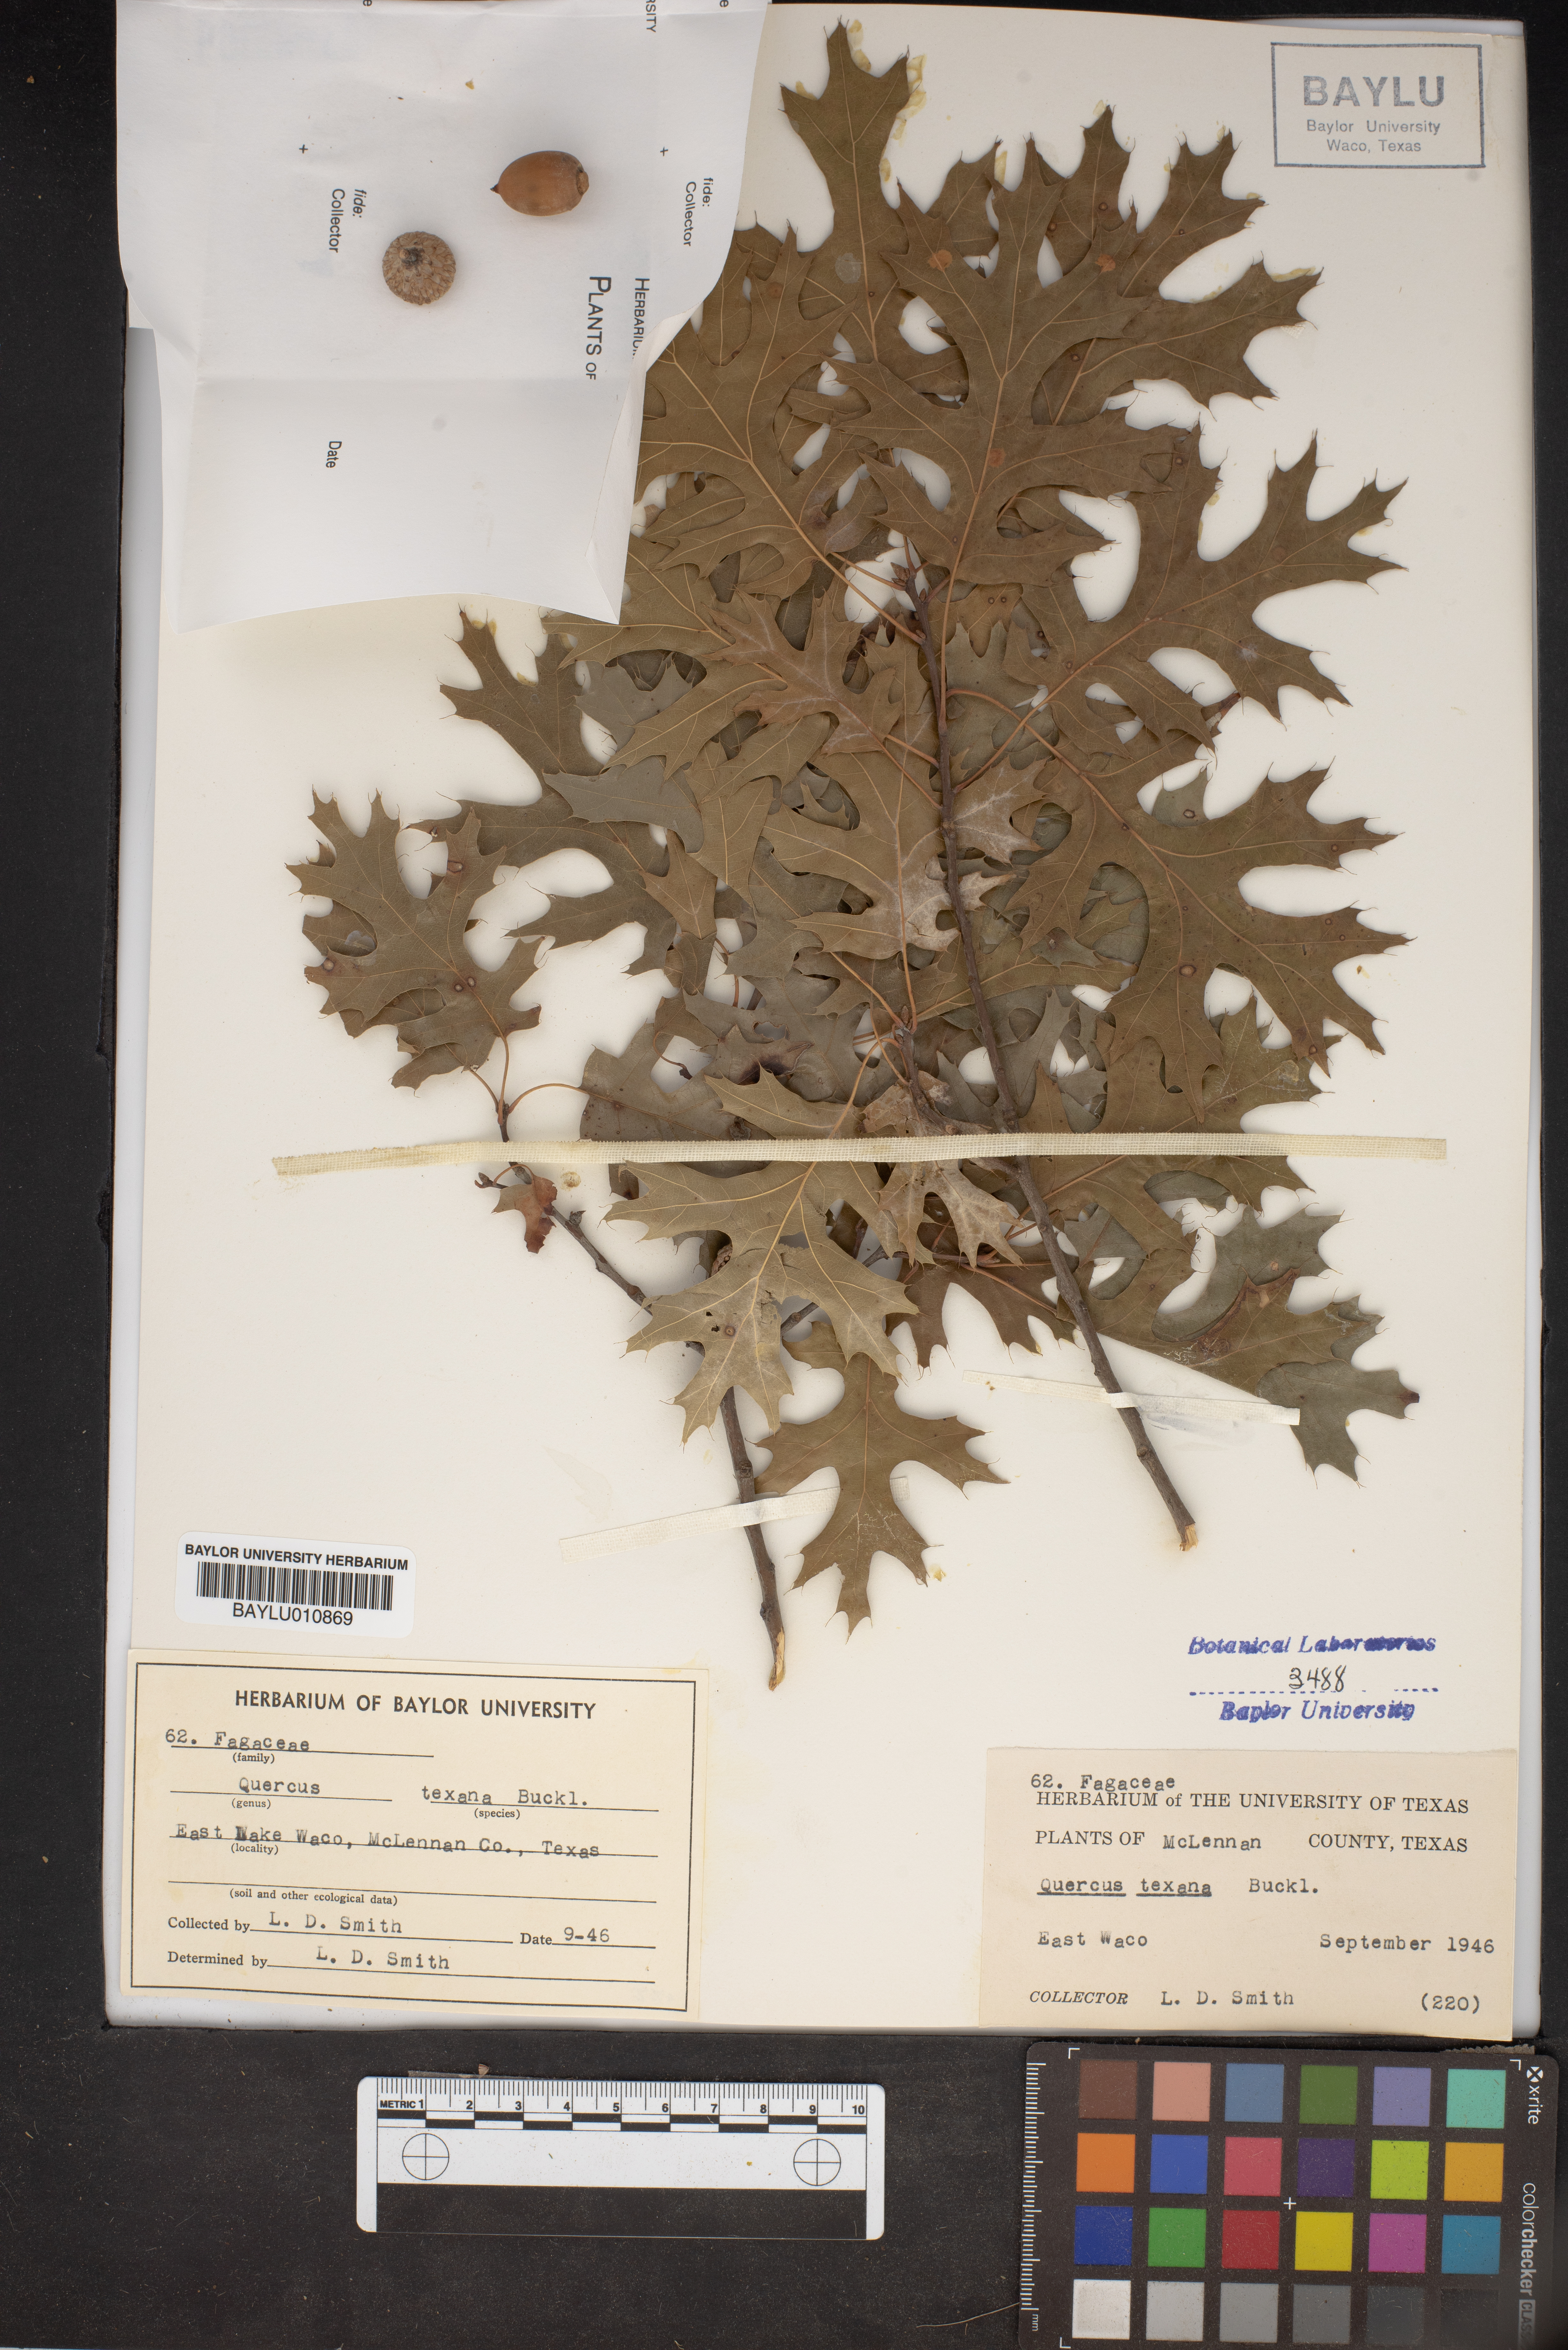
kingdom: Plantae
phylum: Tracheophyta
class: Magnoliopsida
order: Fagales
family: Fagaceae
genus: Quercus
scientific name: Quercus texana
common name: Nuttall oak
